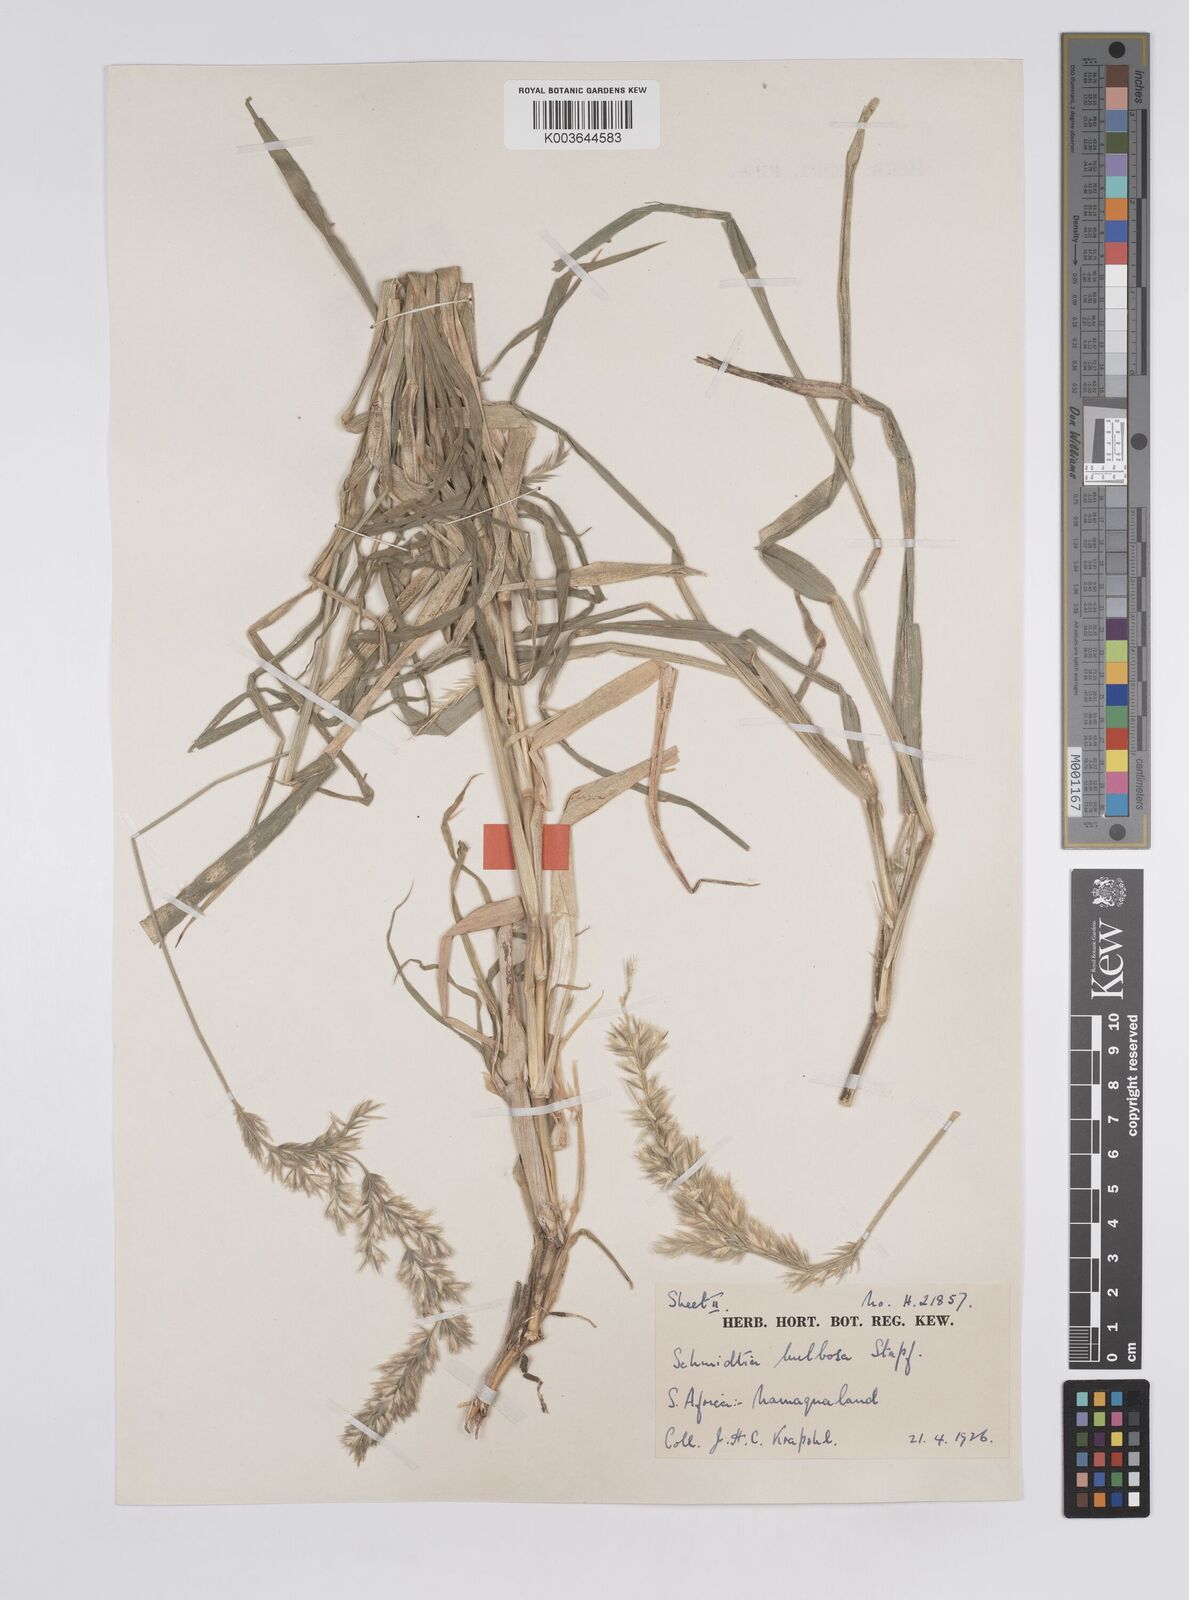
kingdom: Plantae
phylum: Tracheophyta
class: Liliopsida
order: Poales
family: Poaceae
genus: Schmidtia
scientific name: Schmidtia kalahariensis
